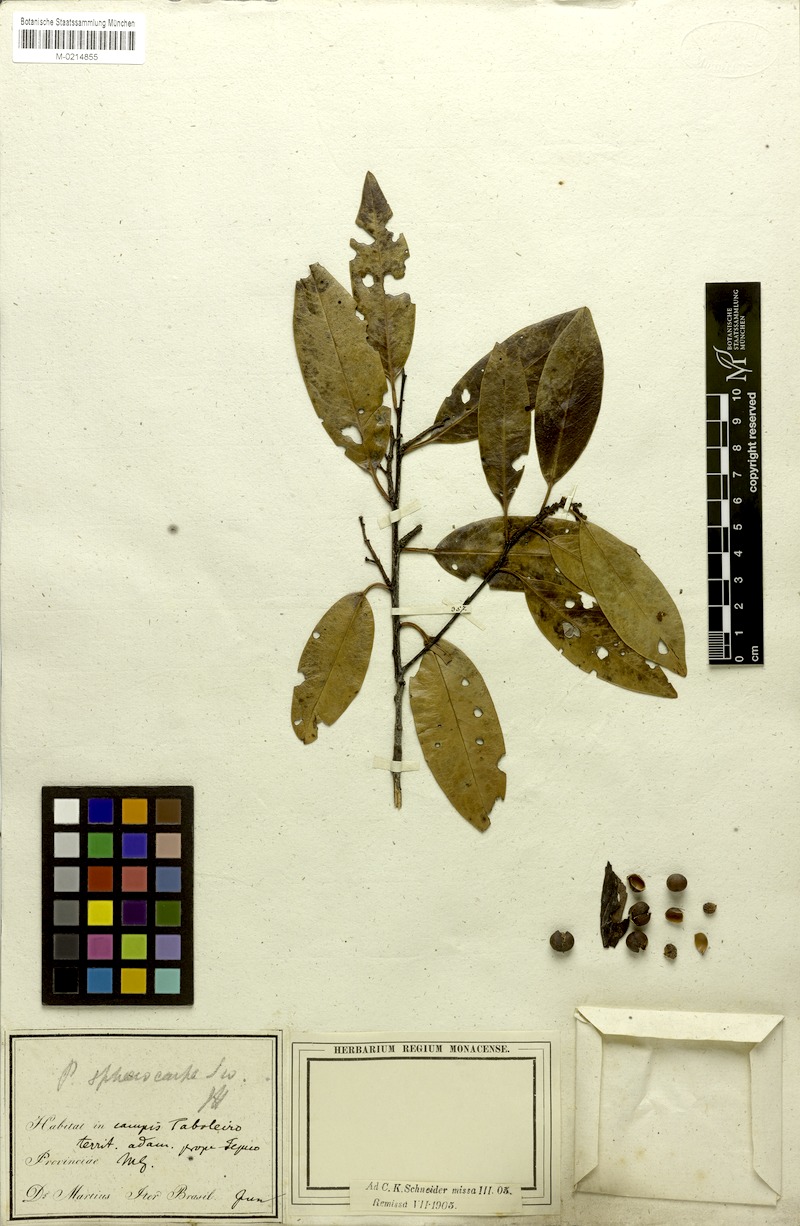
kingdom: Plantae
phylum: Tracheophyta
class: Magnoliopsida
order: Rosales
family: Rosaceae
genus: Prunus
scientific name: Prunus brasiliensis
